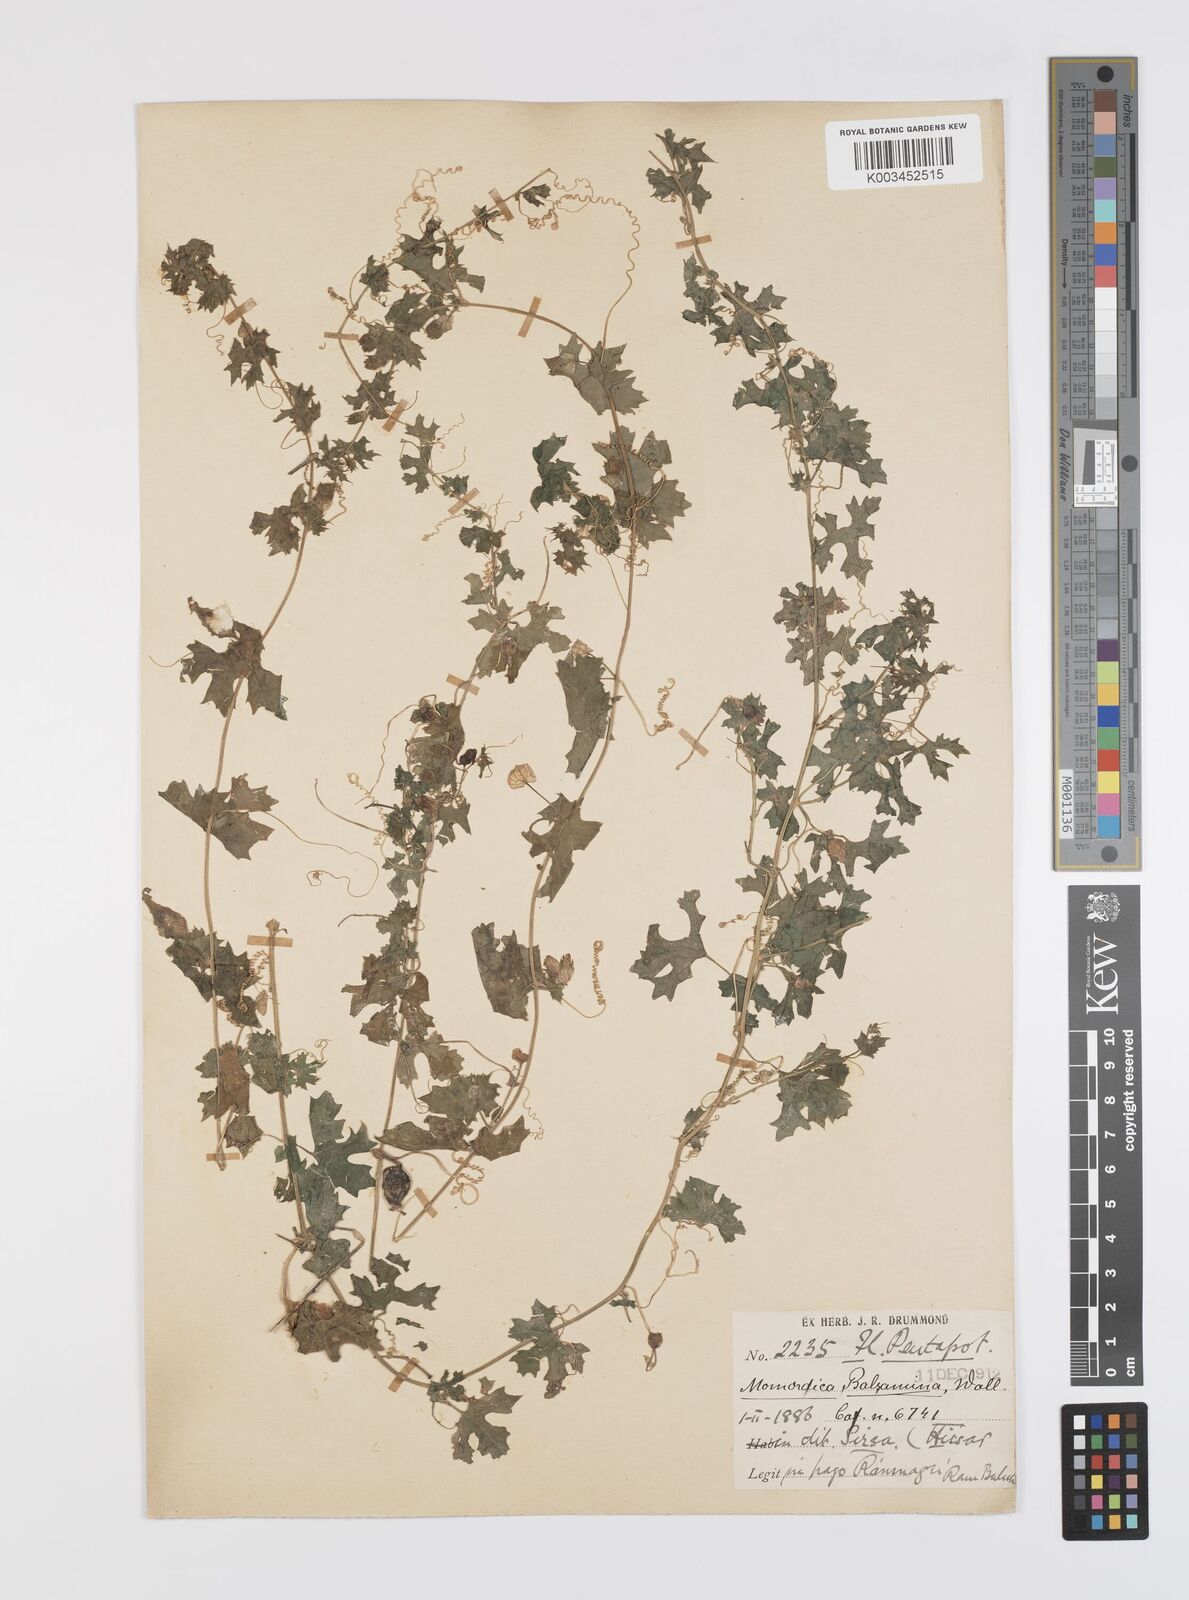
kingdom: Plantae
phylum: Tracheophyta
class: Magnoliopsida
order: Cucurbitales
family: Cucurbitaceae
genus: Momordica
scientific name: Momordica balsamina
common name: Southern balsampear
